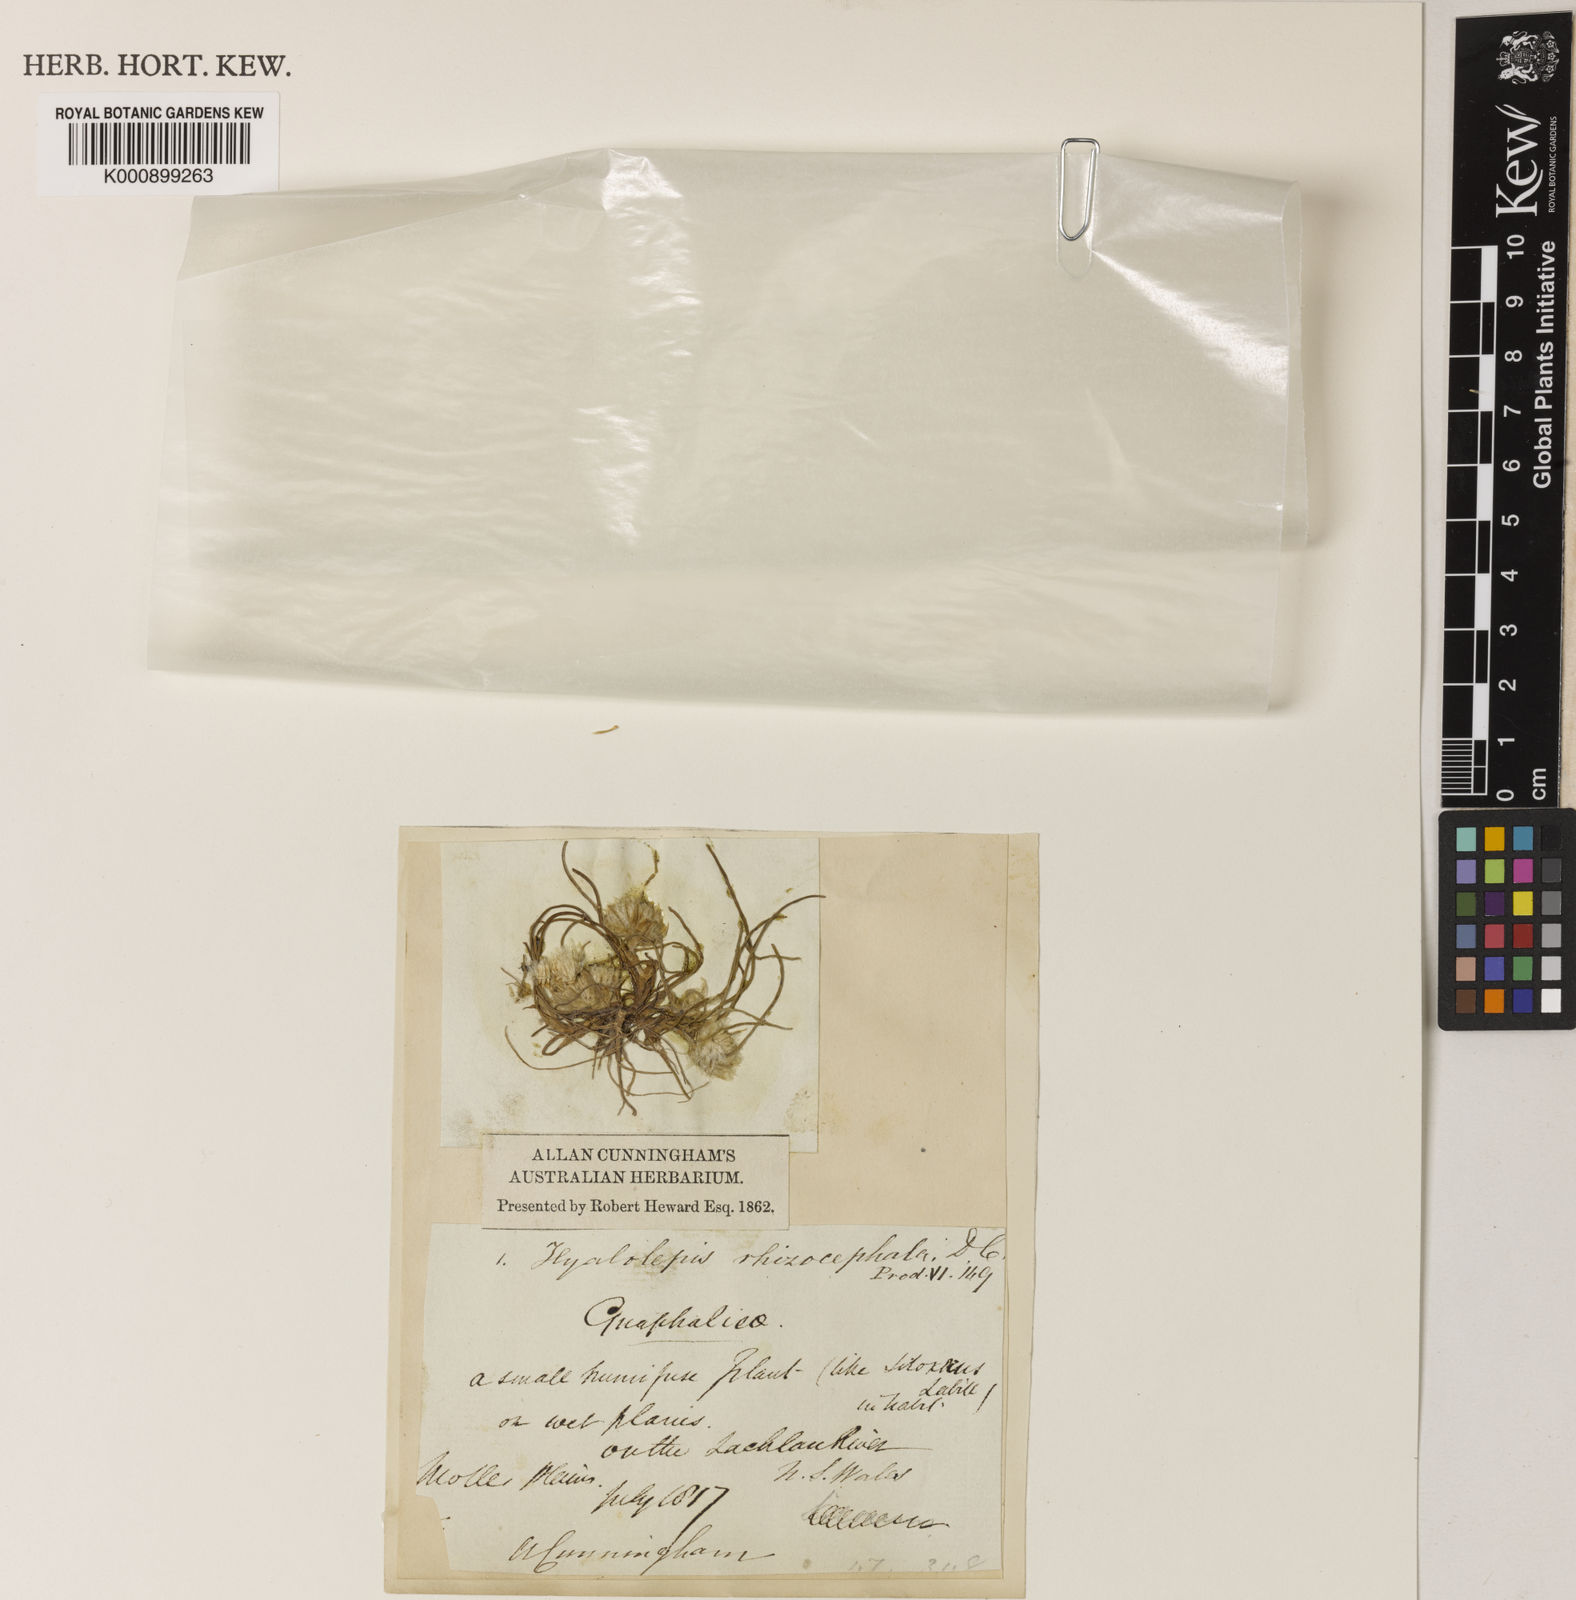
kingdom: Plantae
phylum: Tracheophyta
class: Magnoliopsida
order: Asterales
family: Asteraceae
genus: Myriocephalus
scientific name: Myriocephalus rhizocephalus
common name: Tufted woolly-heads
